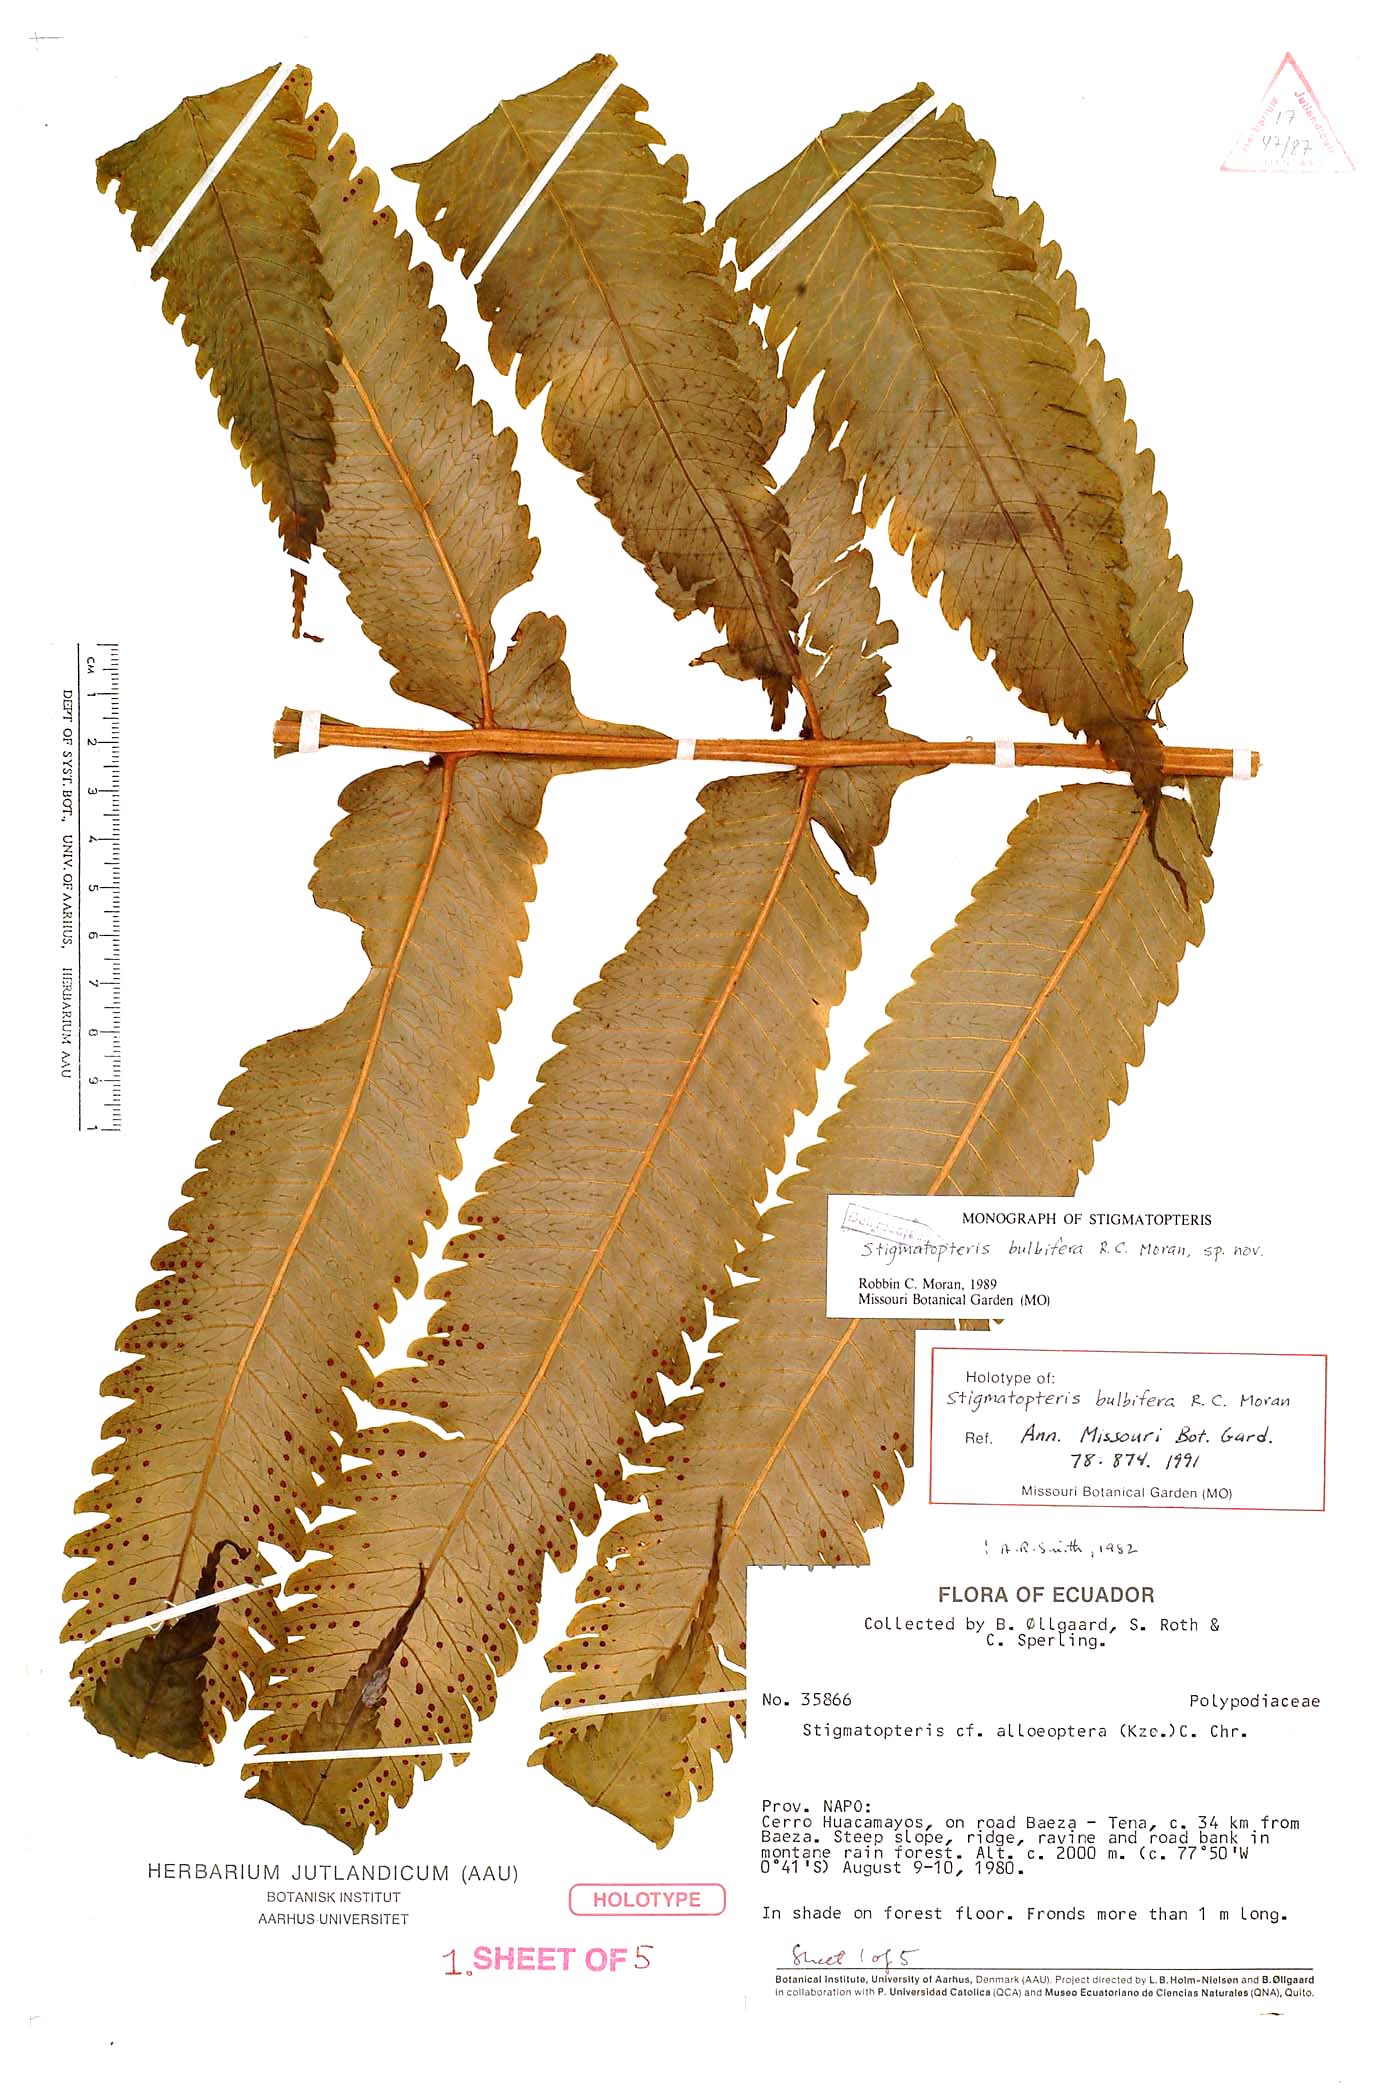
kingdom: Plantae
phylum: Tracheophyta
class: Polypodiopsida
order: Polypodiales
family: Dryopteridaceae
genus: Stigmatopteris
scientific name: Stigmatopteris bulbifera
